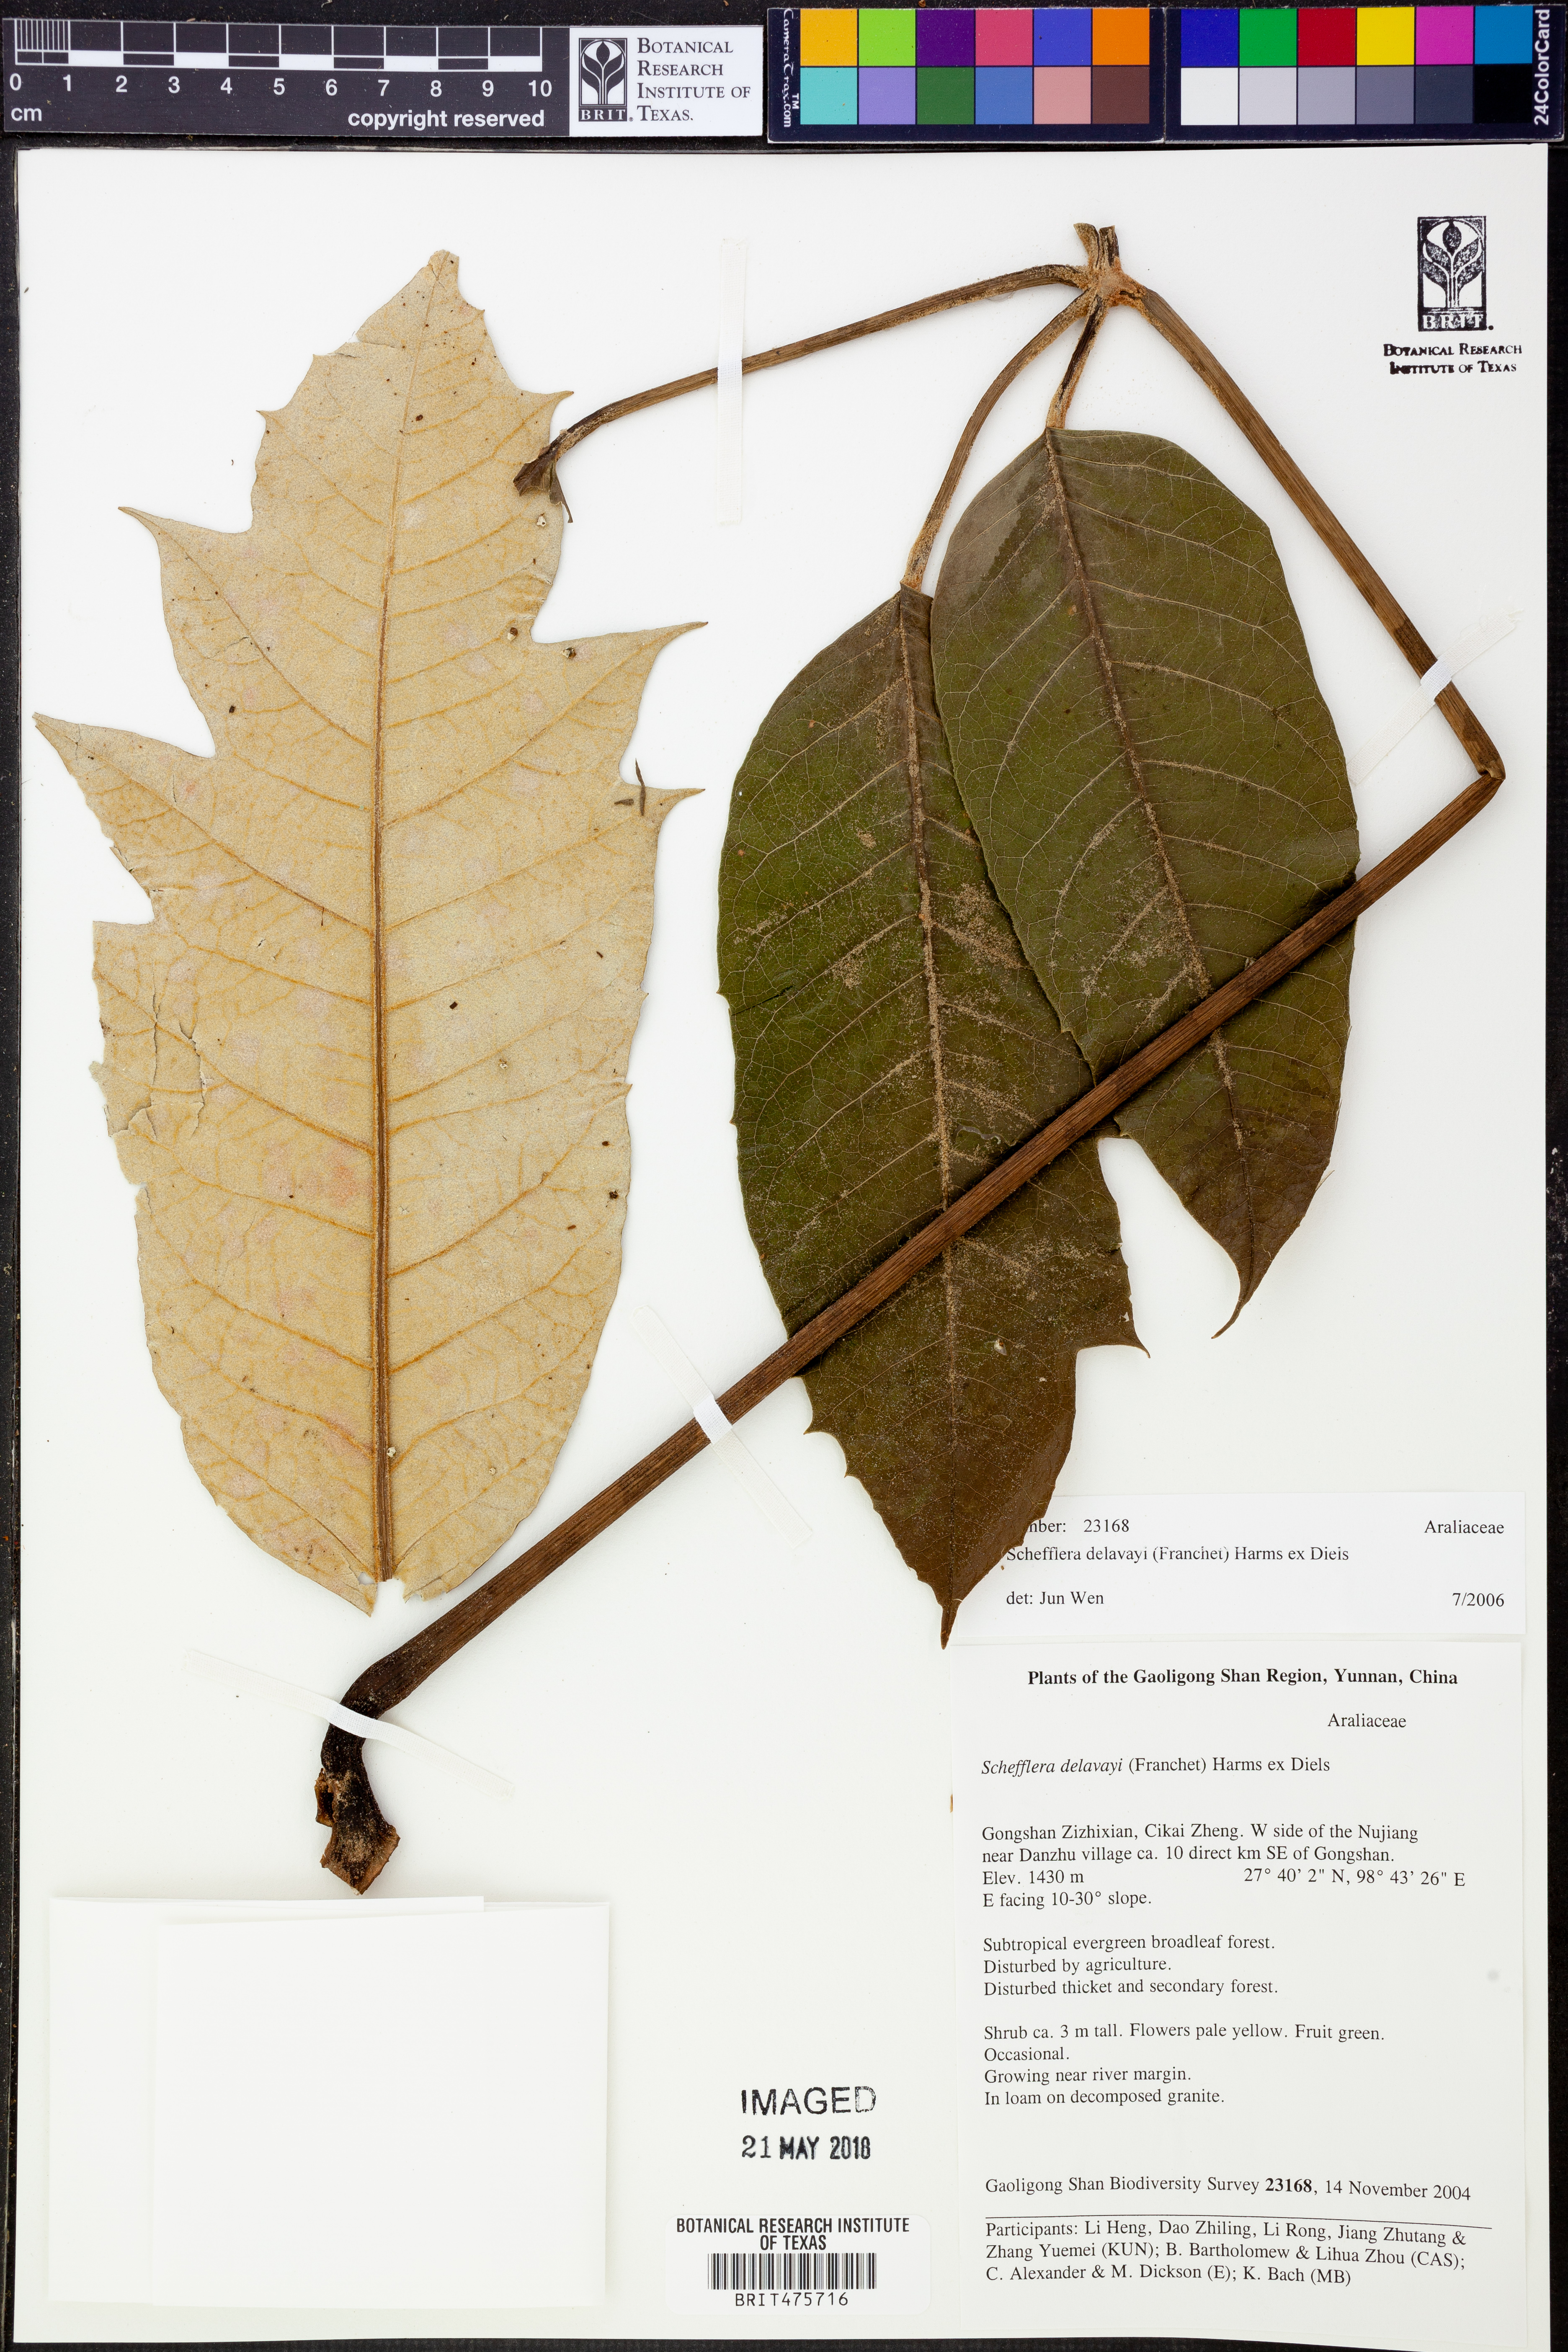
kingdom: Plantae
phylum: Tracheophyta
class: Magnoliopsida
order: Apiales
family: Araliaceae
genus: Heptapleurum
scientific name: Heptapleurum delavayi
